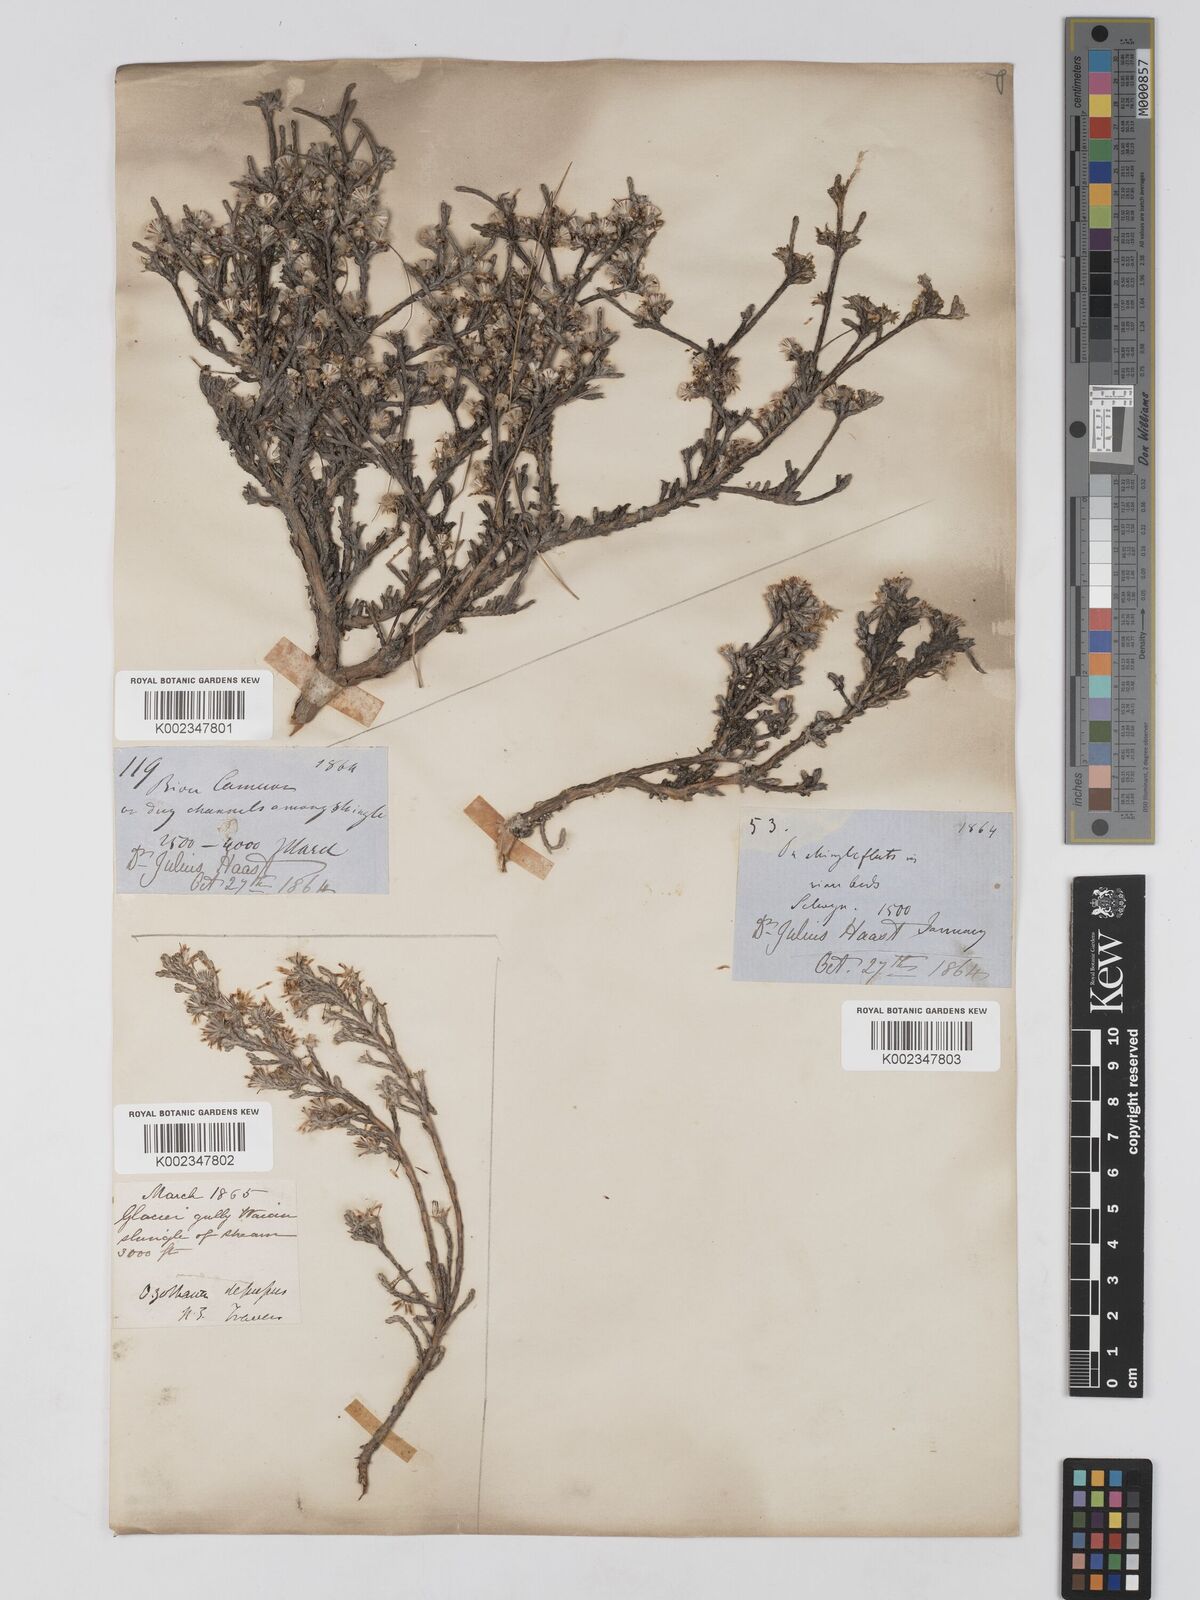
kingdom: Plantae
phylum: Tracheophyta
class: Magnoliopsida
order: Asterales
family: Asteraceae
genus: Ozothamnus
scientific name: Ozothamnus depressus
